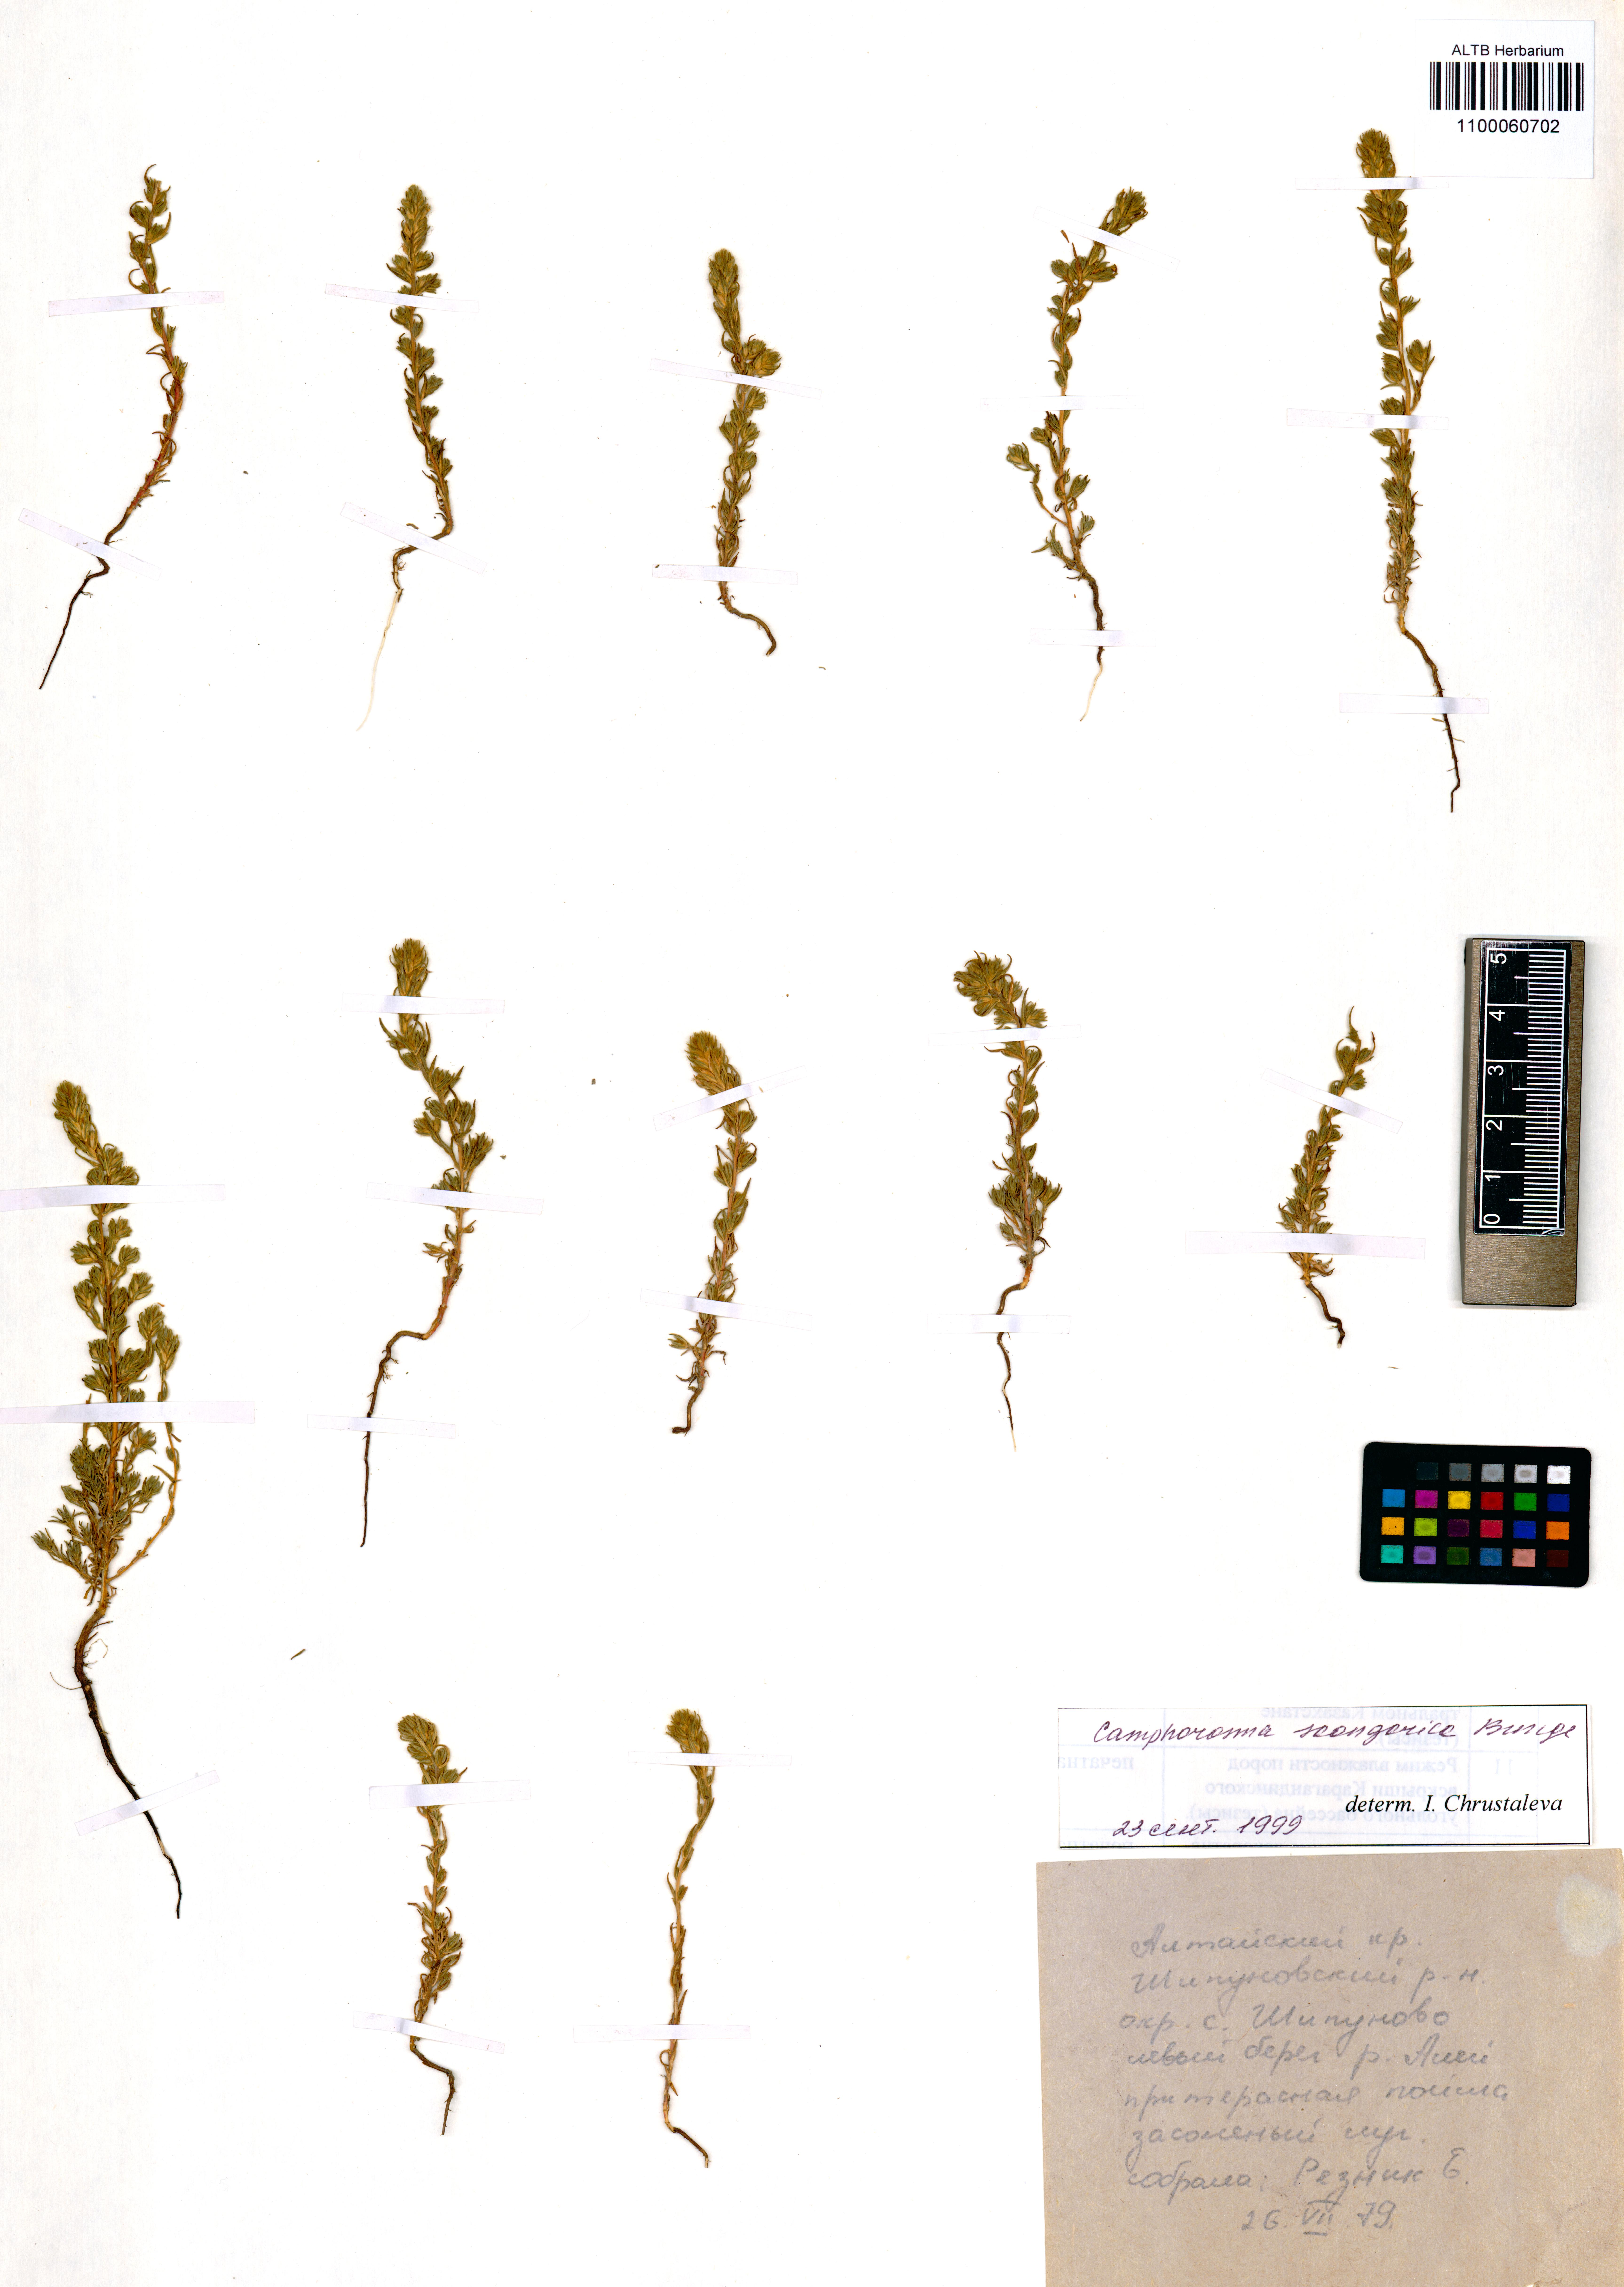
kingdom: Plantae
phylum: Tracheophyta
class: Magnoliopsida
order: Caryophyllales
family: Amaranthaceae
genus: Camphorosma
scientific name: Camphorosma songorica
